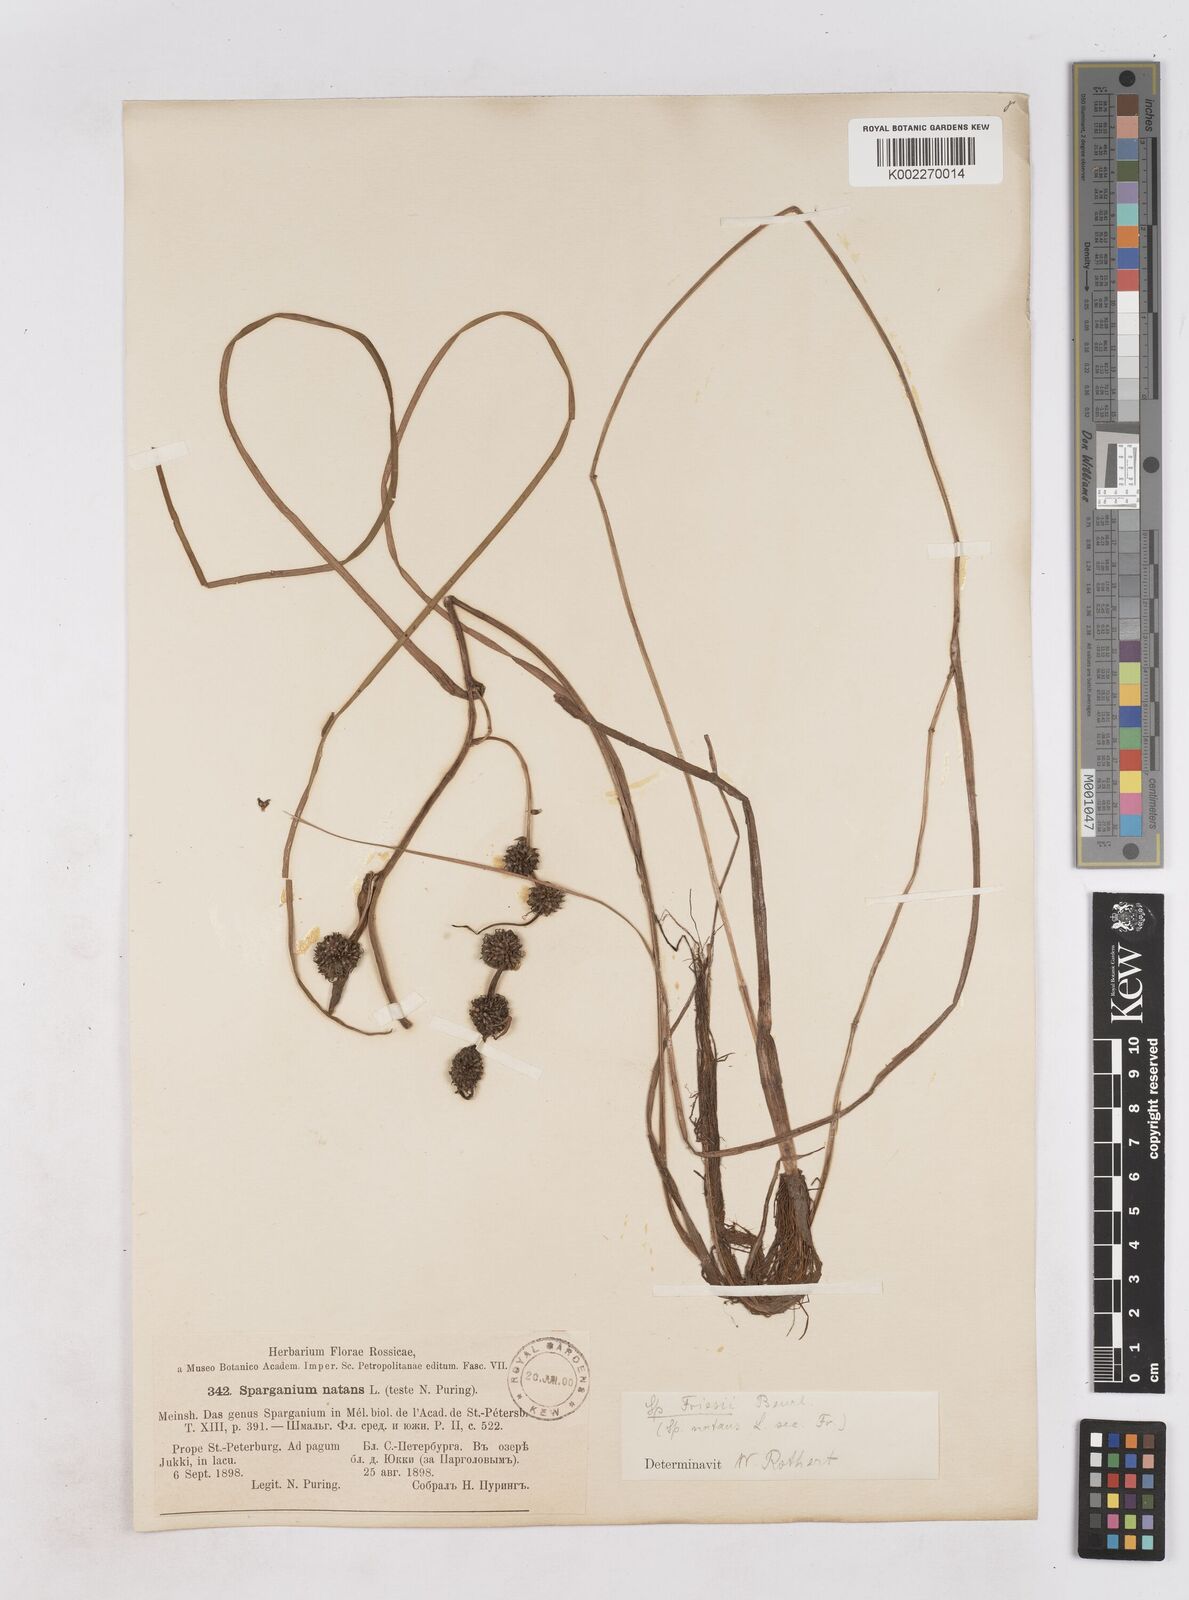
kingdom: Plantae
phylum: Tracheophyta
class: Liliopsida
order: Poales
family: Typhaceae
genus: Sparganium
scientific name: Sparganium gramineum
